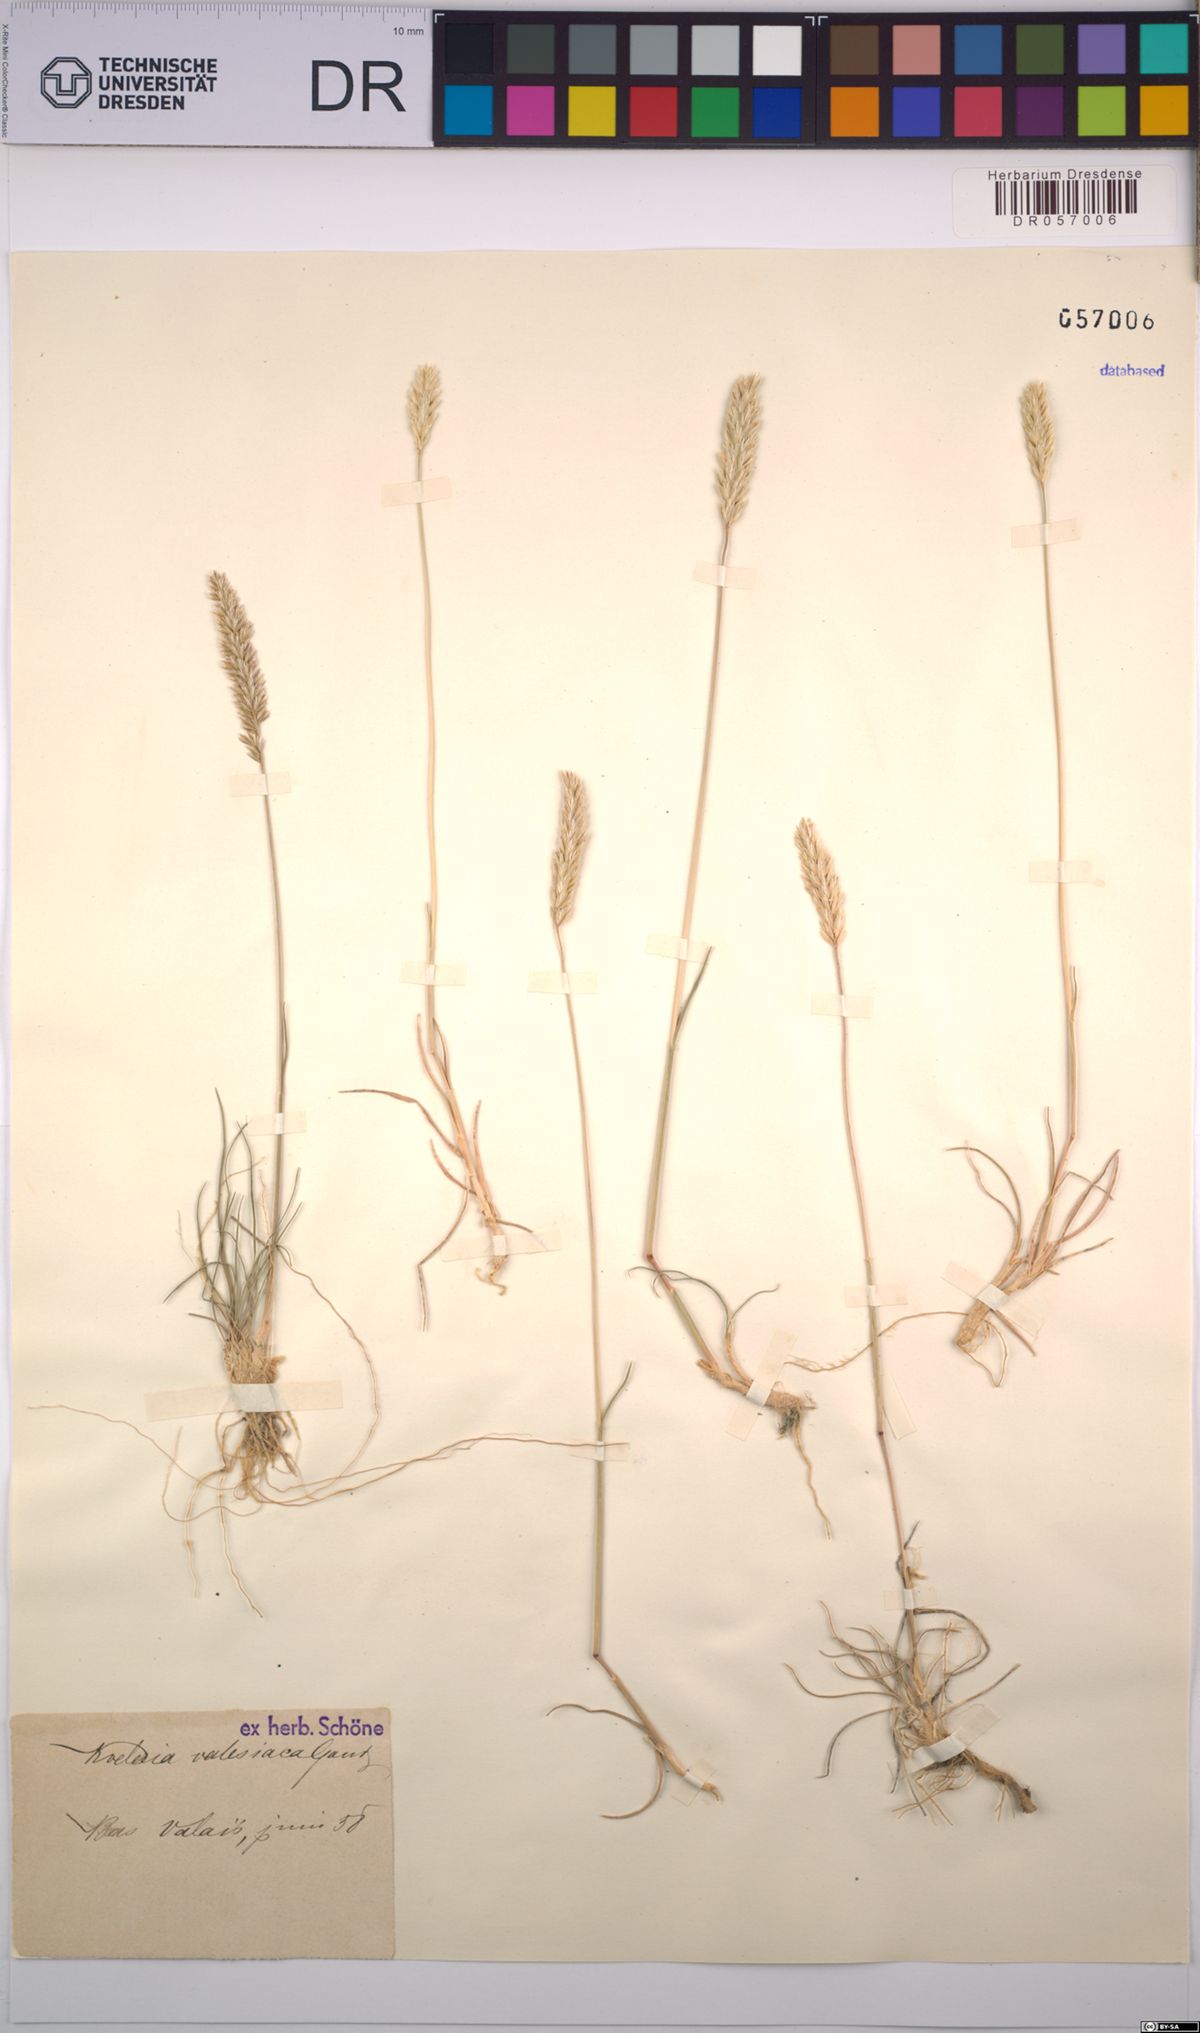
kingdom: Plantae
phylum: Tracheophyta
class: Liliopsida
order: Poales
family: Poaceae
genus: Koeleria
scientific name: Koeleria vallesiana
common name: Somerset hair-grass
